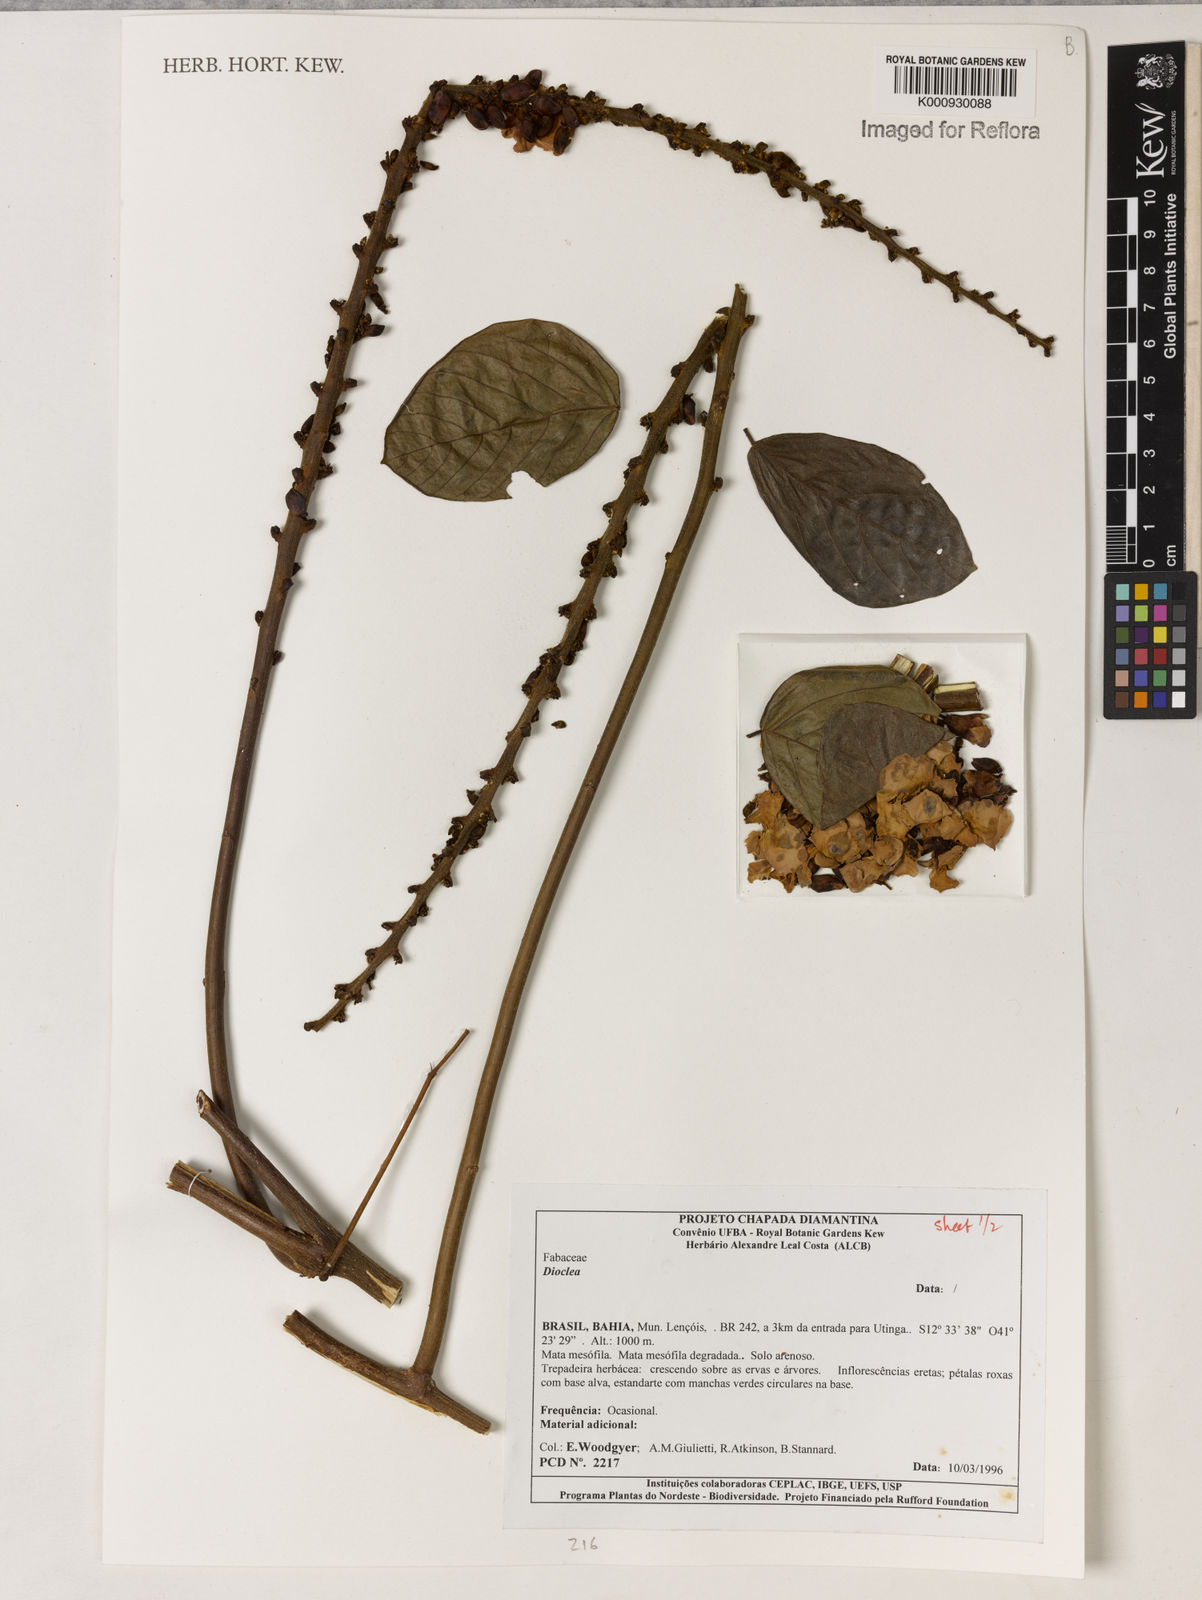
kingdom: Plantae
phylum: Tracheophyta
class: Magnoliopsida
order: Fabales
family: Fabaceae
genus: Dioclea
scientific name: Dioclea
